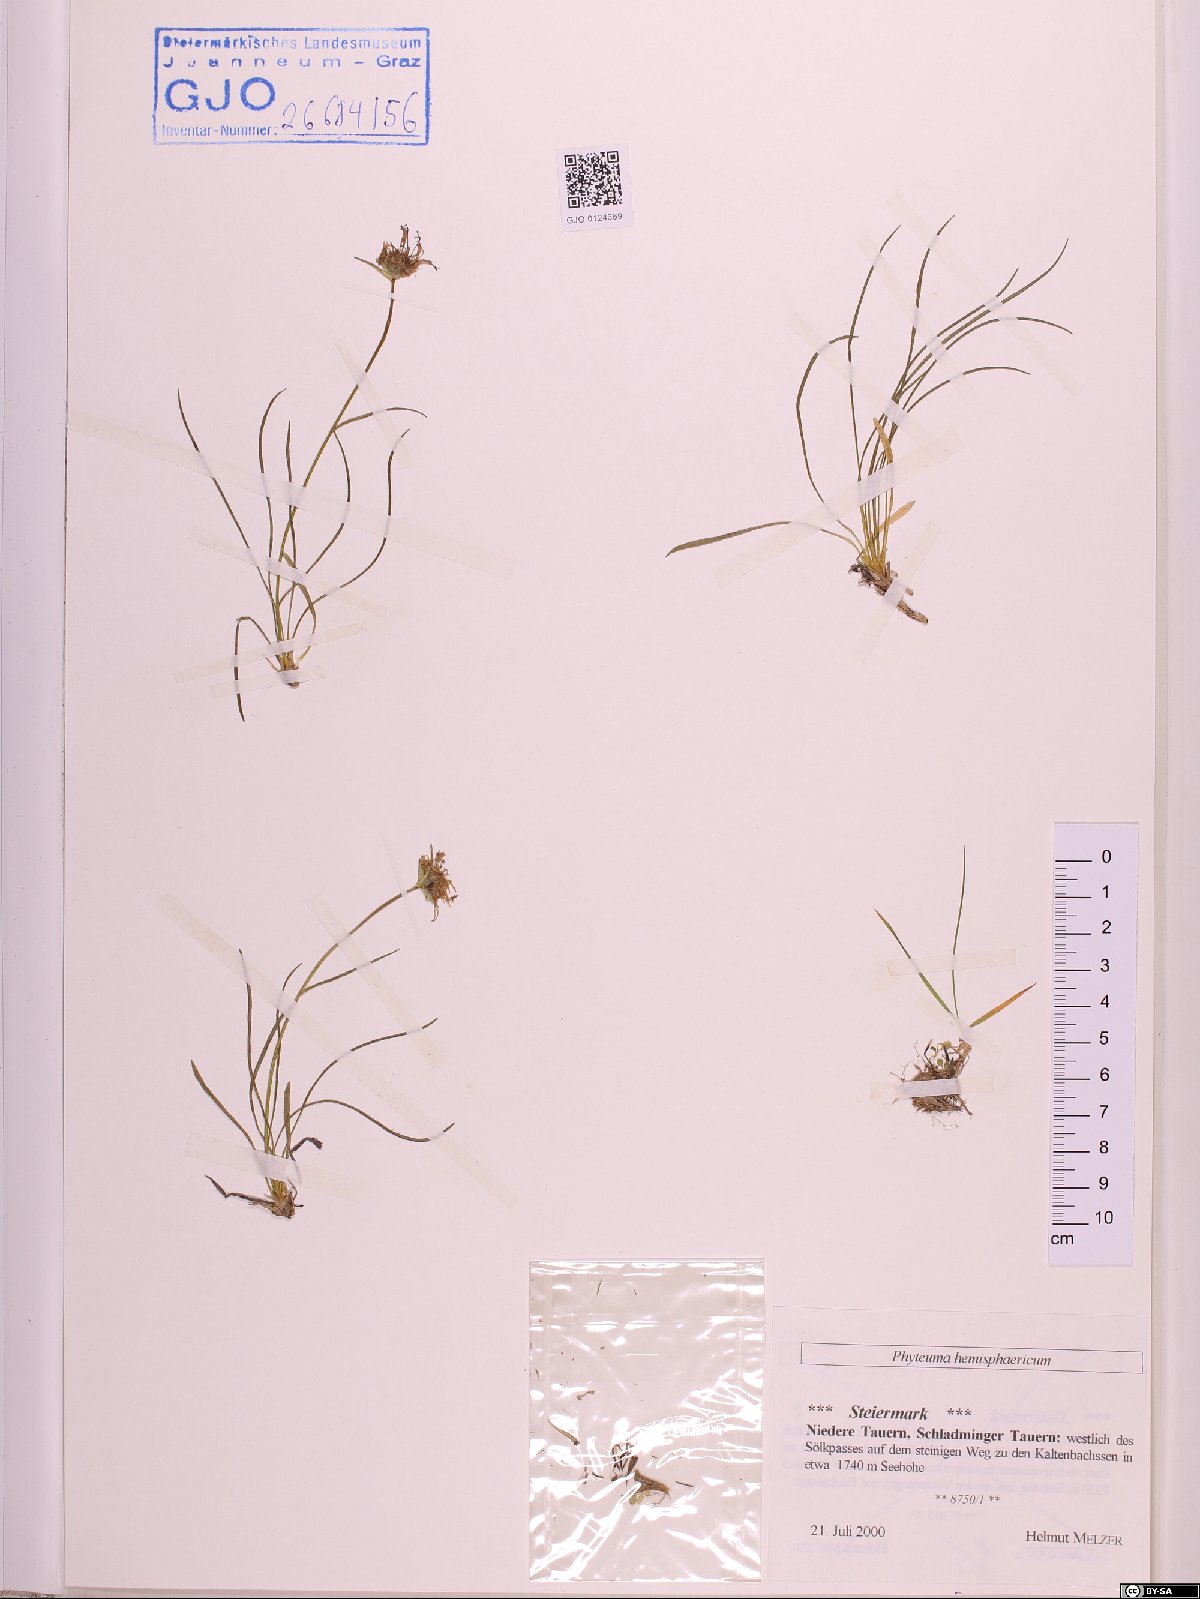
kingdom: Plantae
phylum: Tracheophyta
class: Magnoliopsida
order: Asterales
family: Campanulaceae
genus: Phyteuma
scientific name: Phyteuma hemisphaericum
